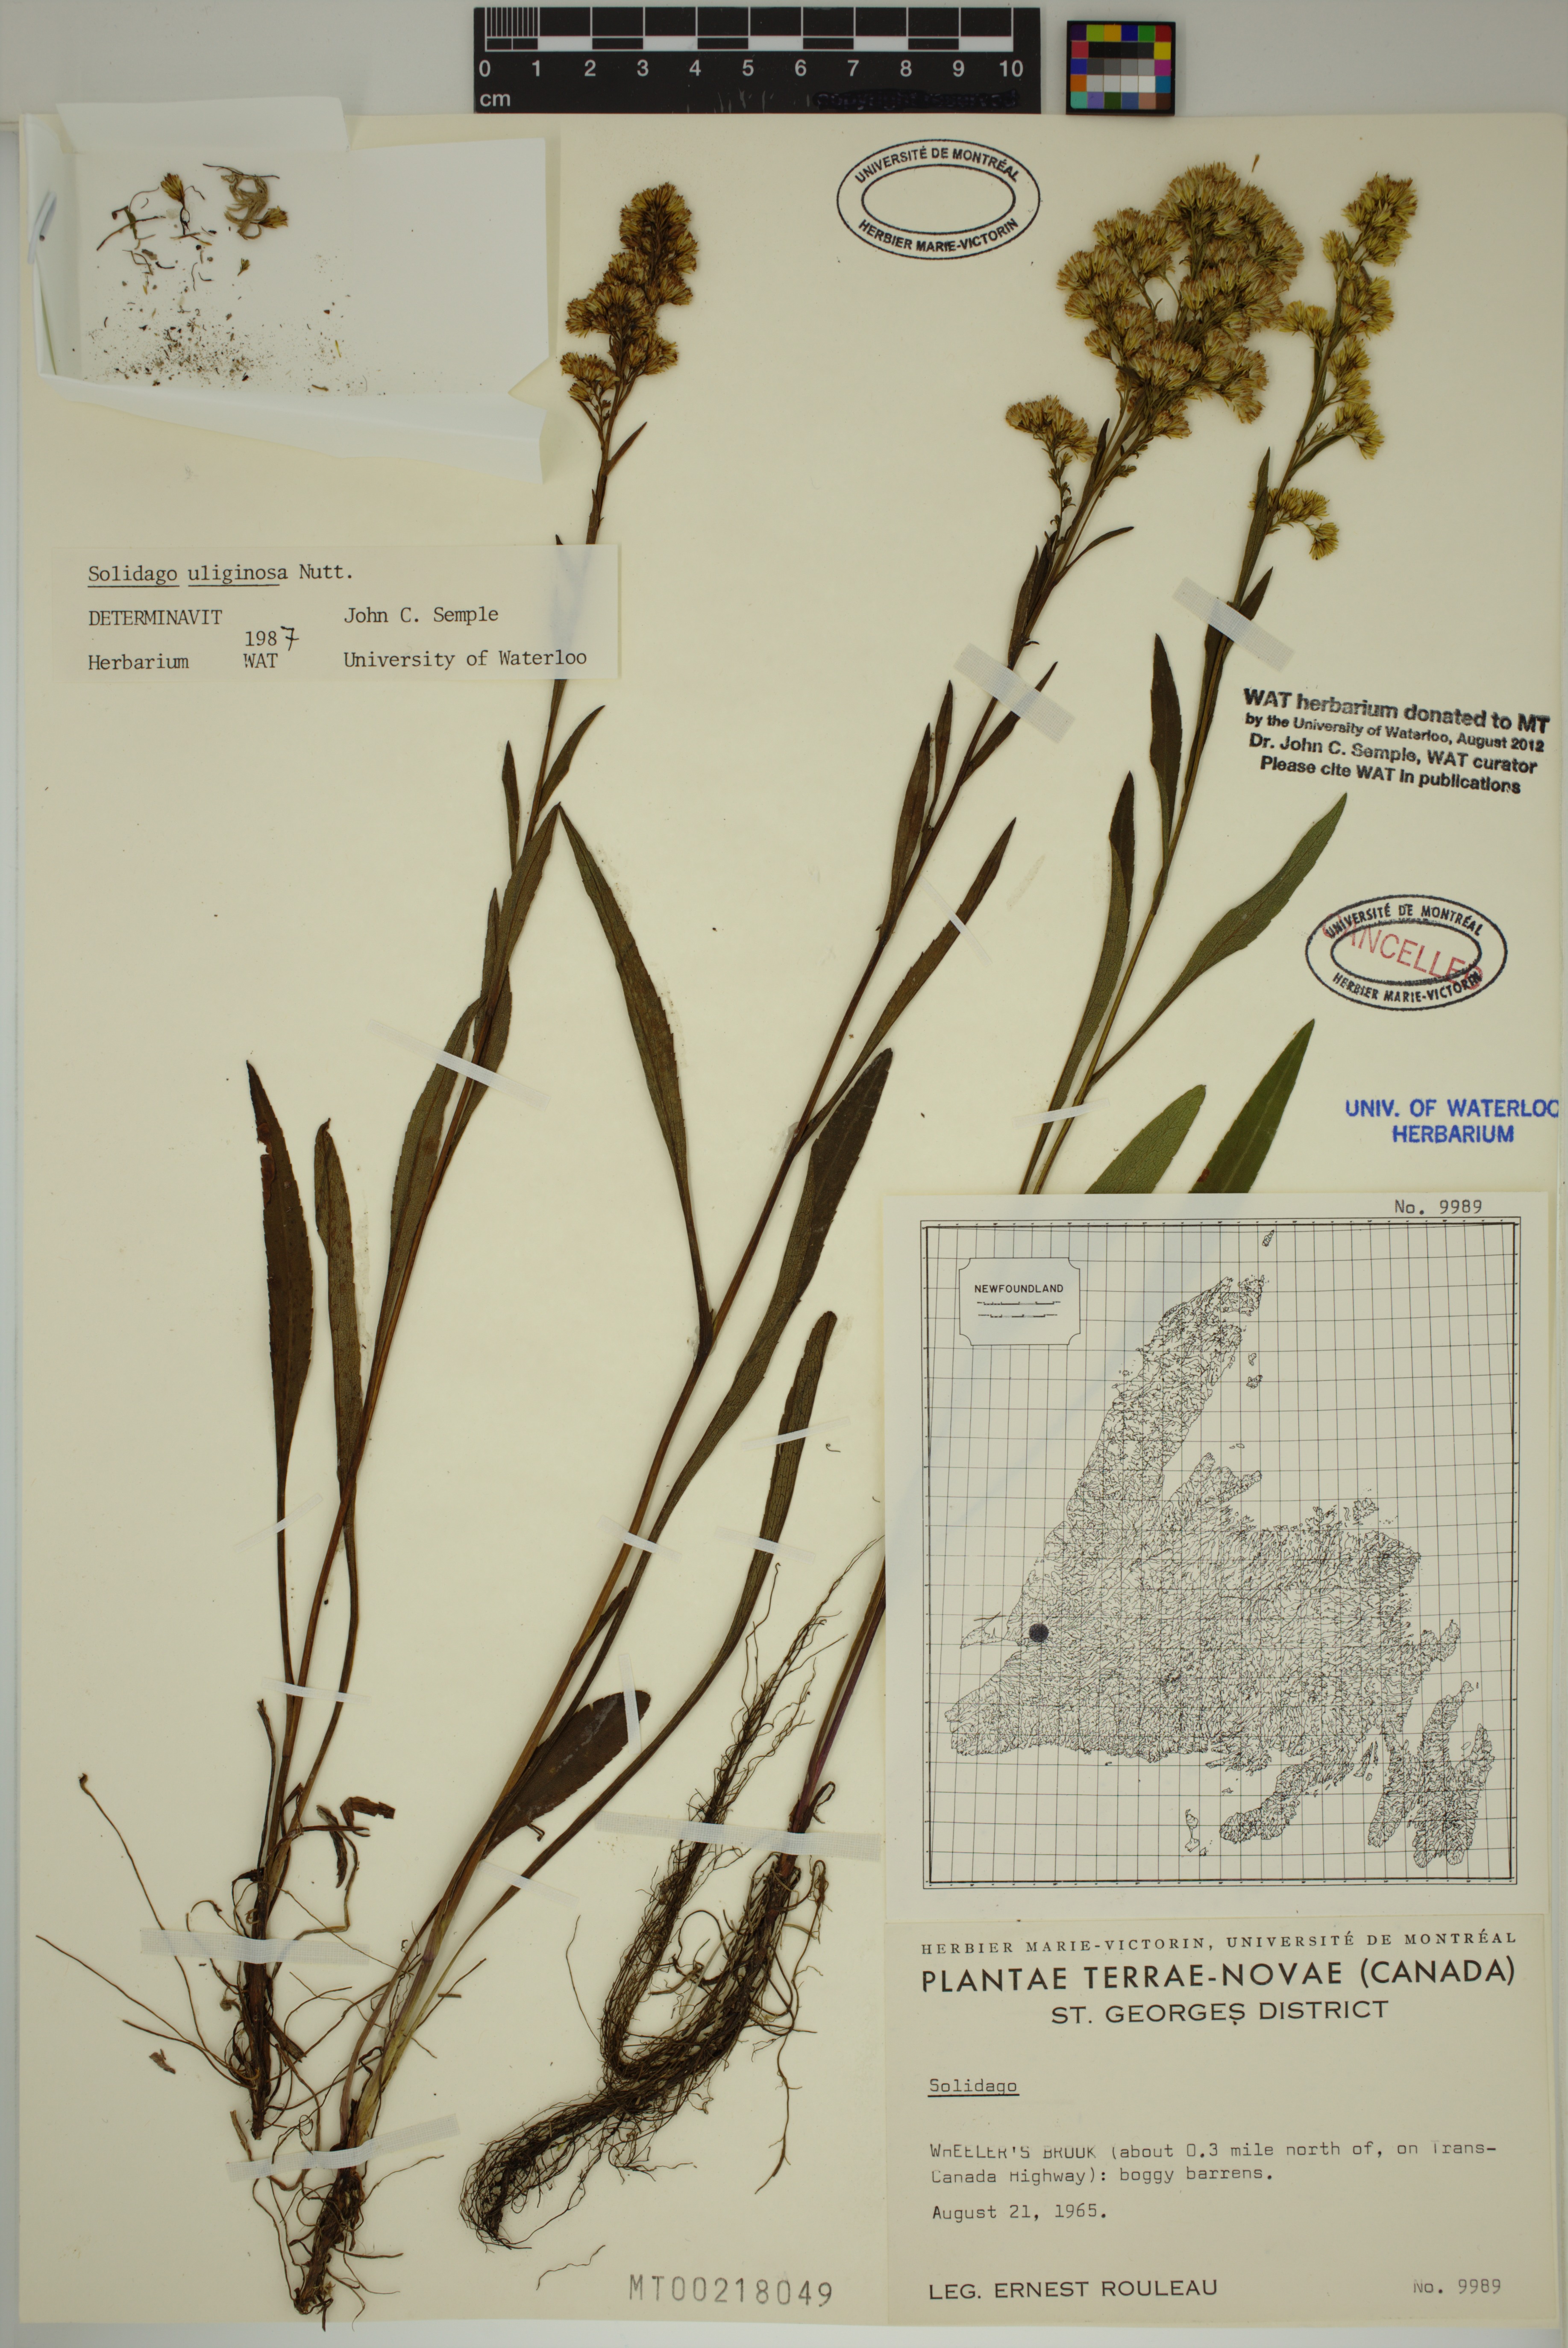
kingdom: Plantae
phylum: Tracheophyta
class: Magnoliopsida
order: Asterales
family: Asteraceae
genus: Solidago
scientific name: Solidago uliginosa
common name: Bog goldenrod
